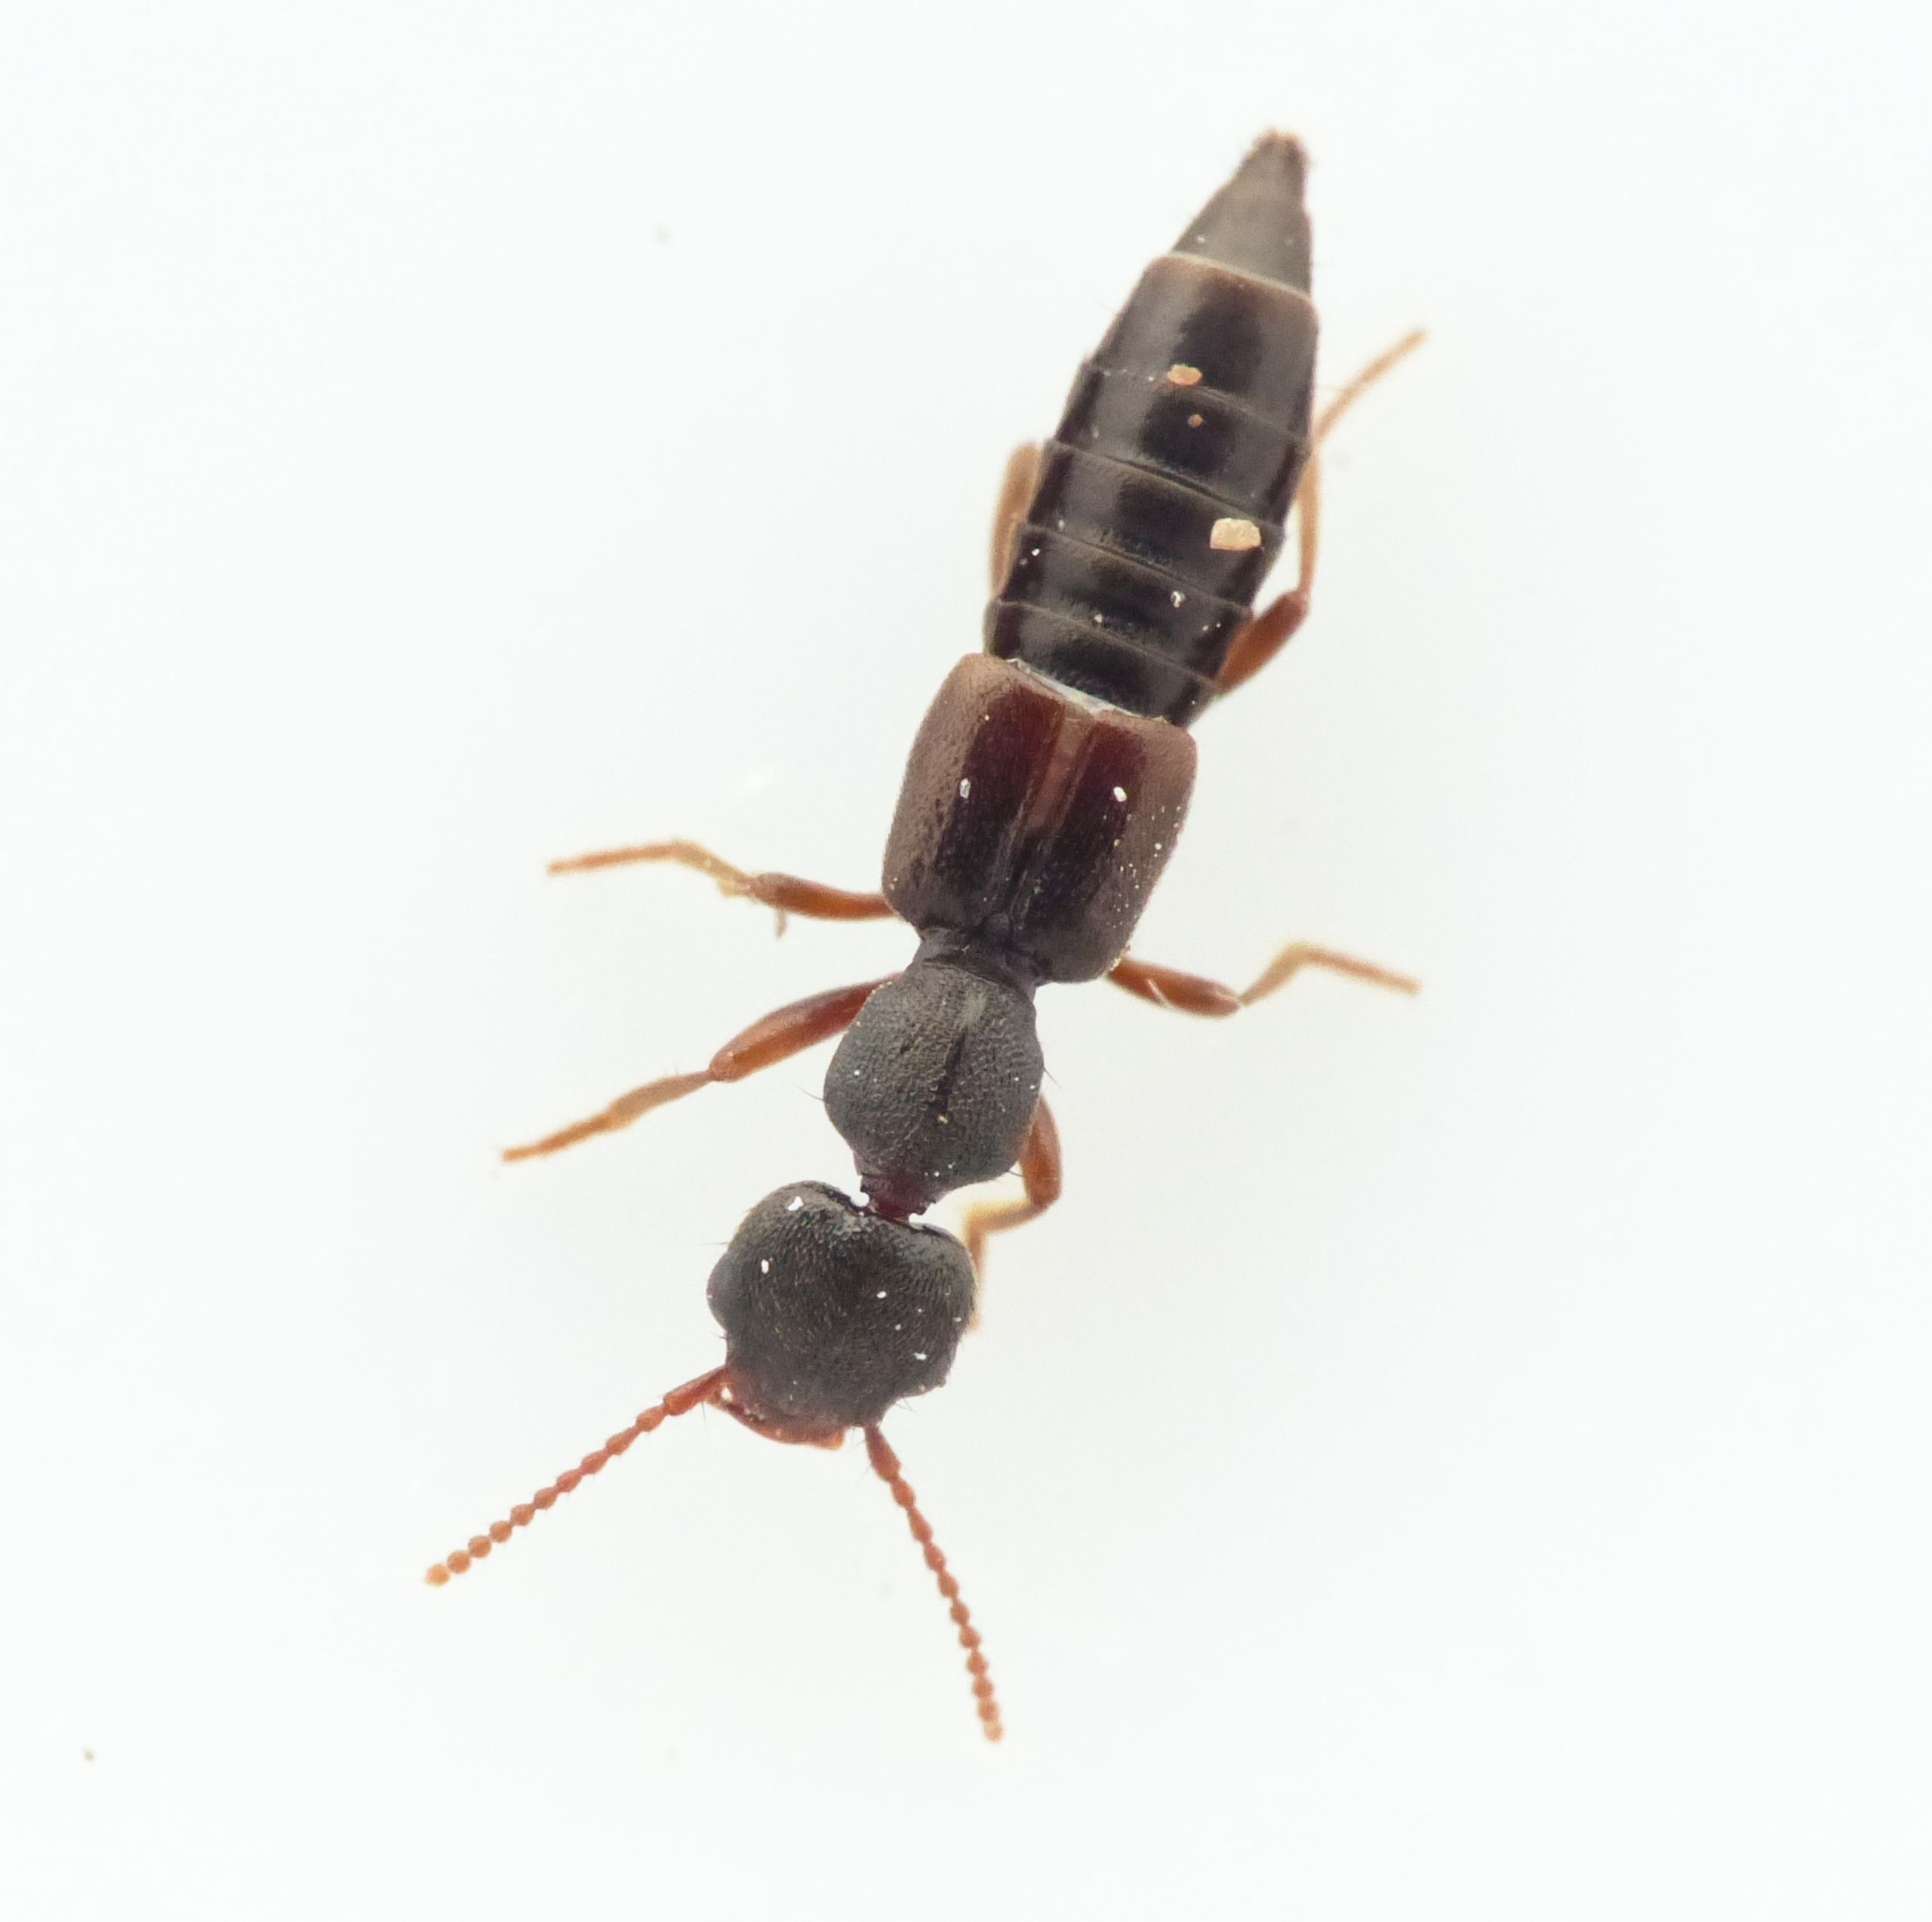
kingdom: Animalia
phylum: Arthropoda
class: Insecta
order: Coleoptera
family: Staphylinidae
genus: Rugilus
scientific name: Rugilus rufipes
